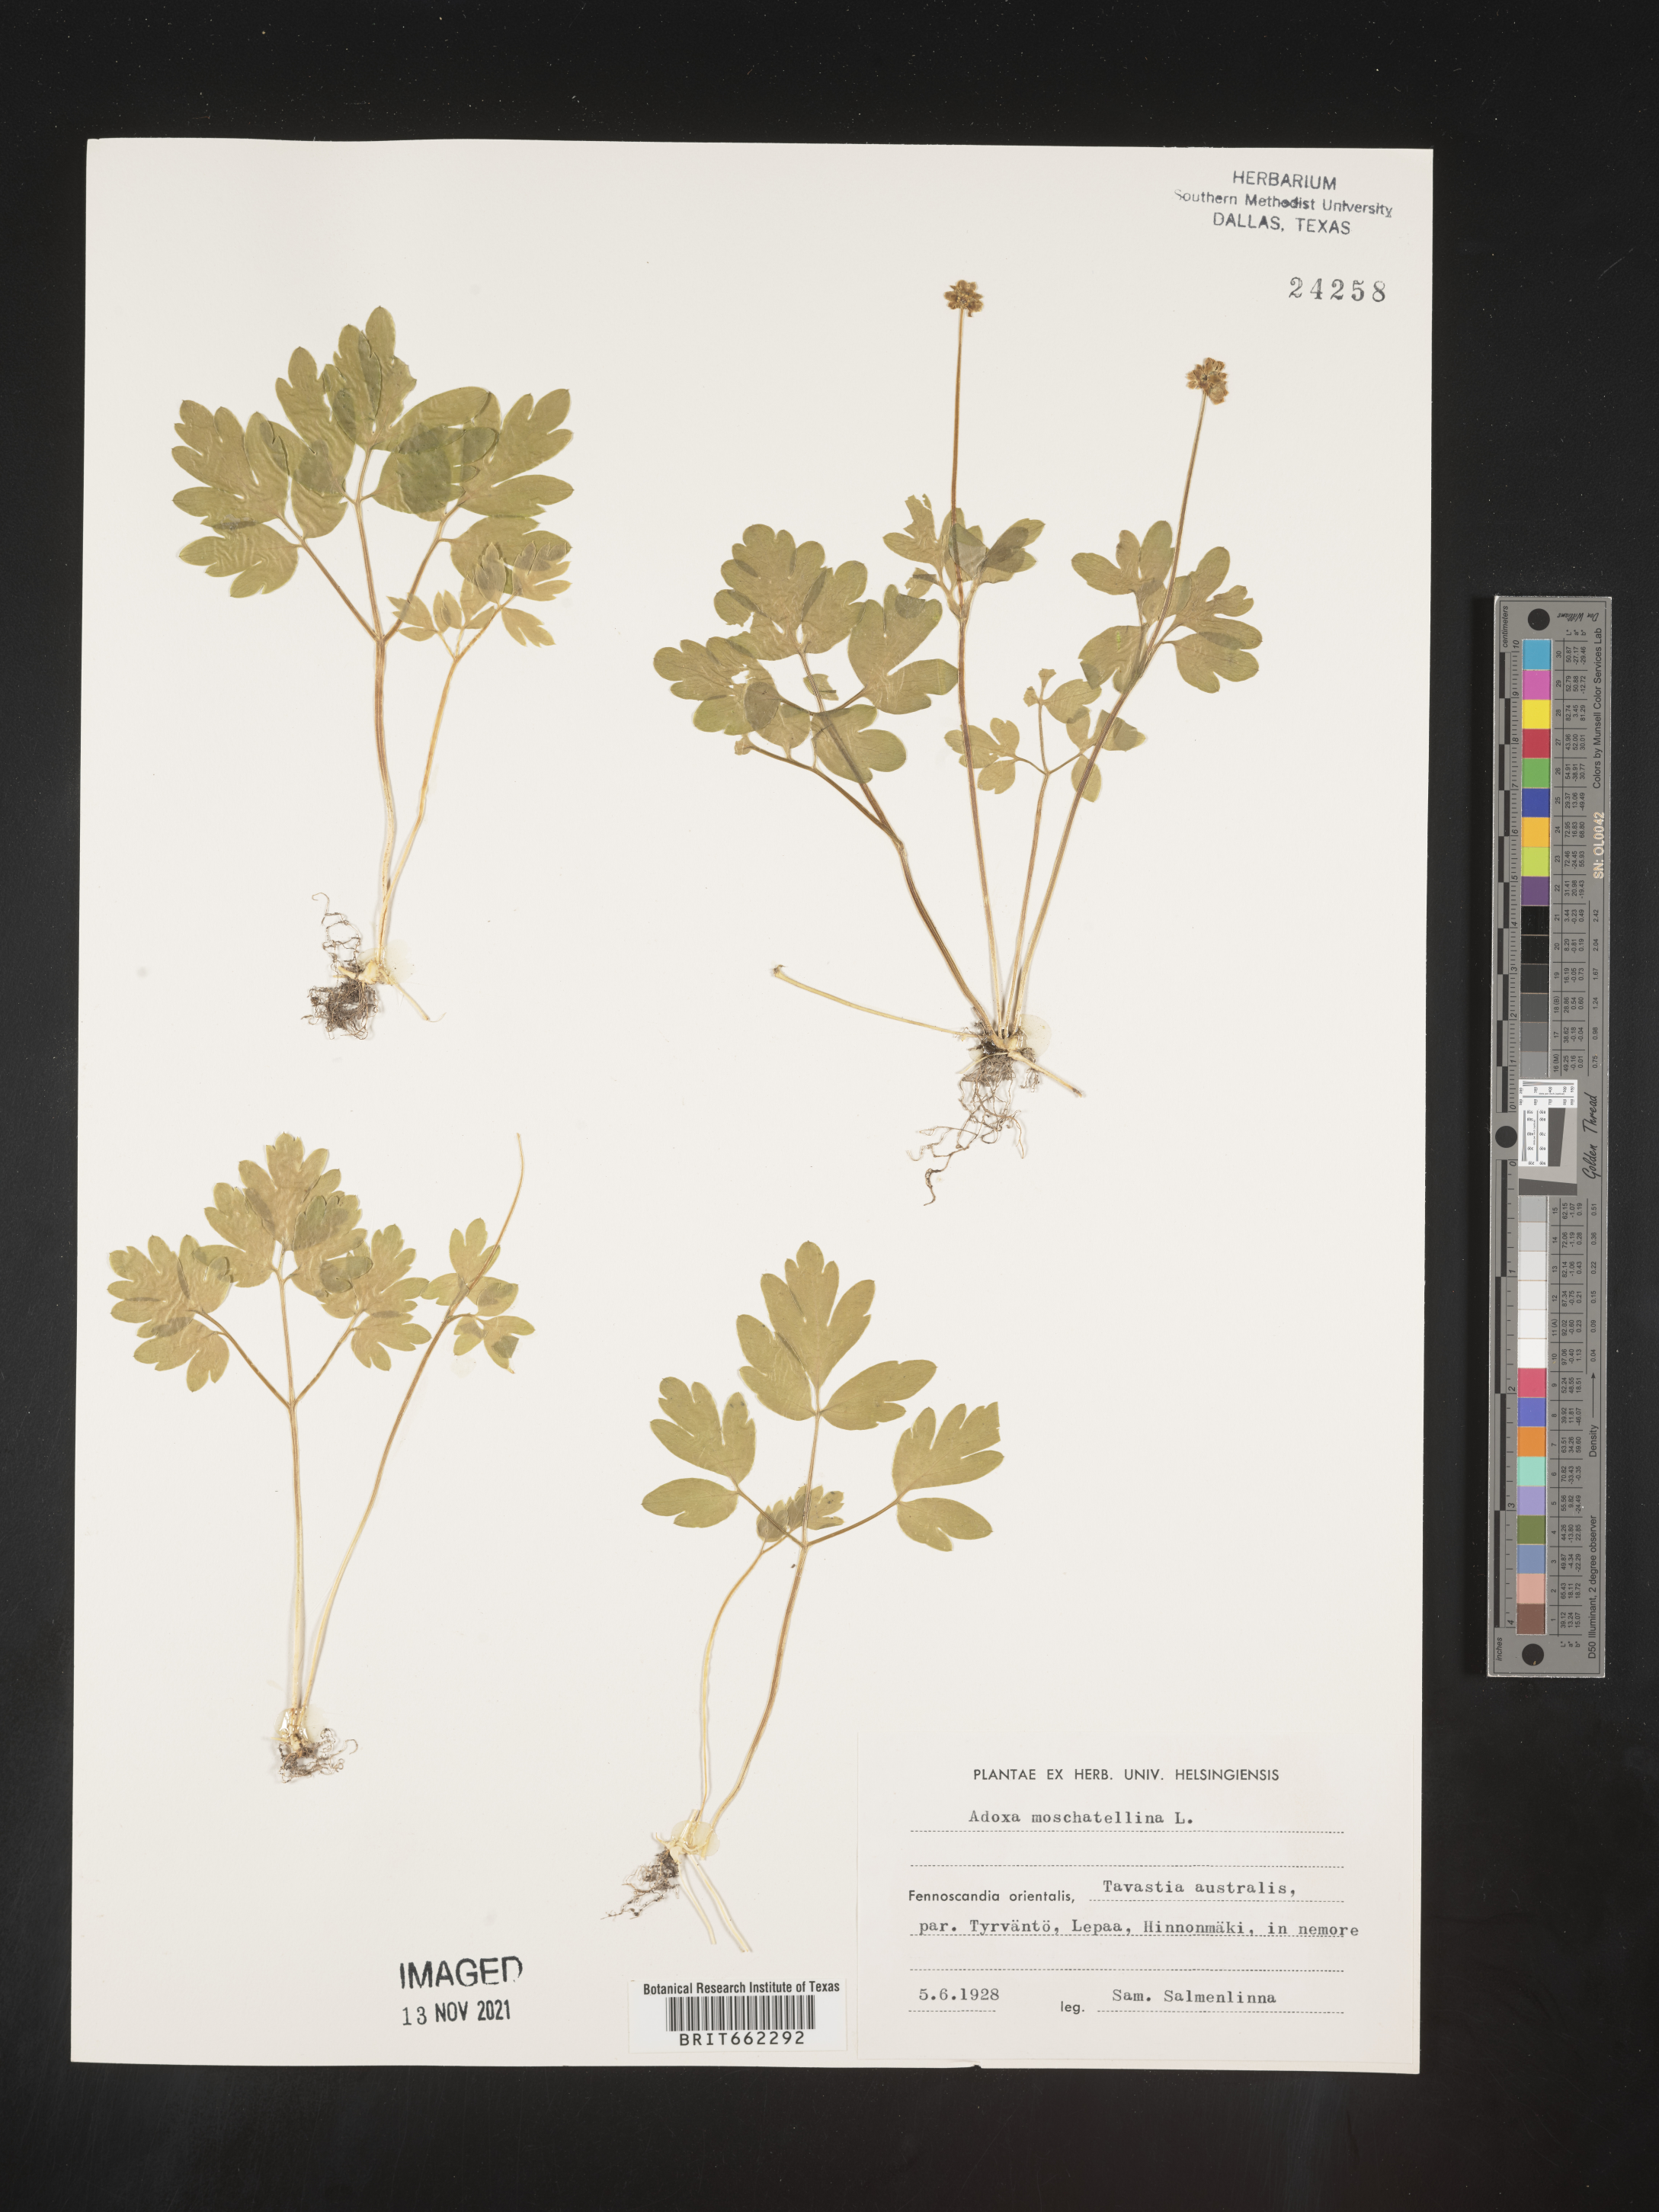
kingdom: Plantae
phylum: Tracheophyta
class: Magnoliopsida
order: Dipsacales
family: Viburnaceae
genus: Adoxa
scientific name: Adoxa
